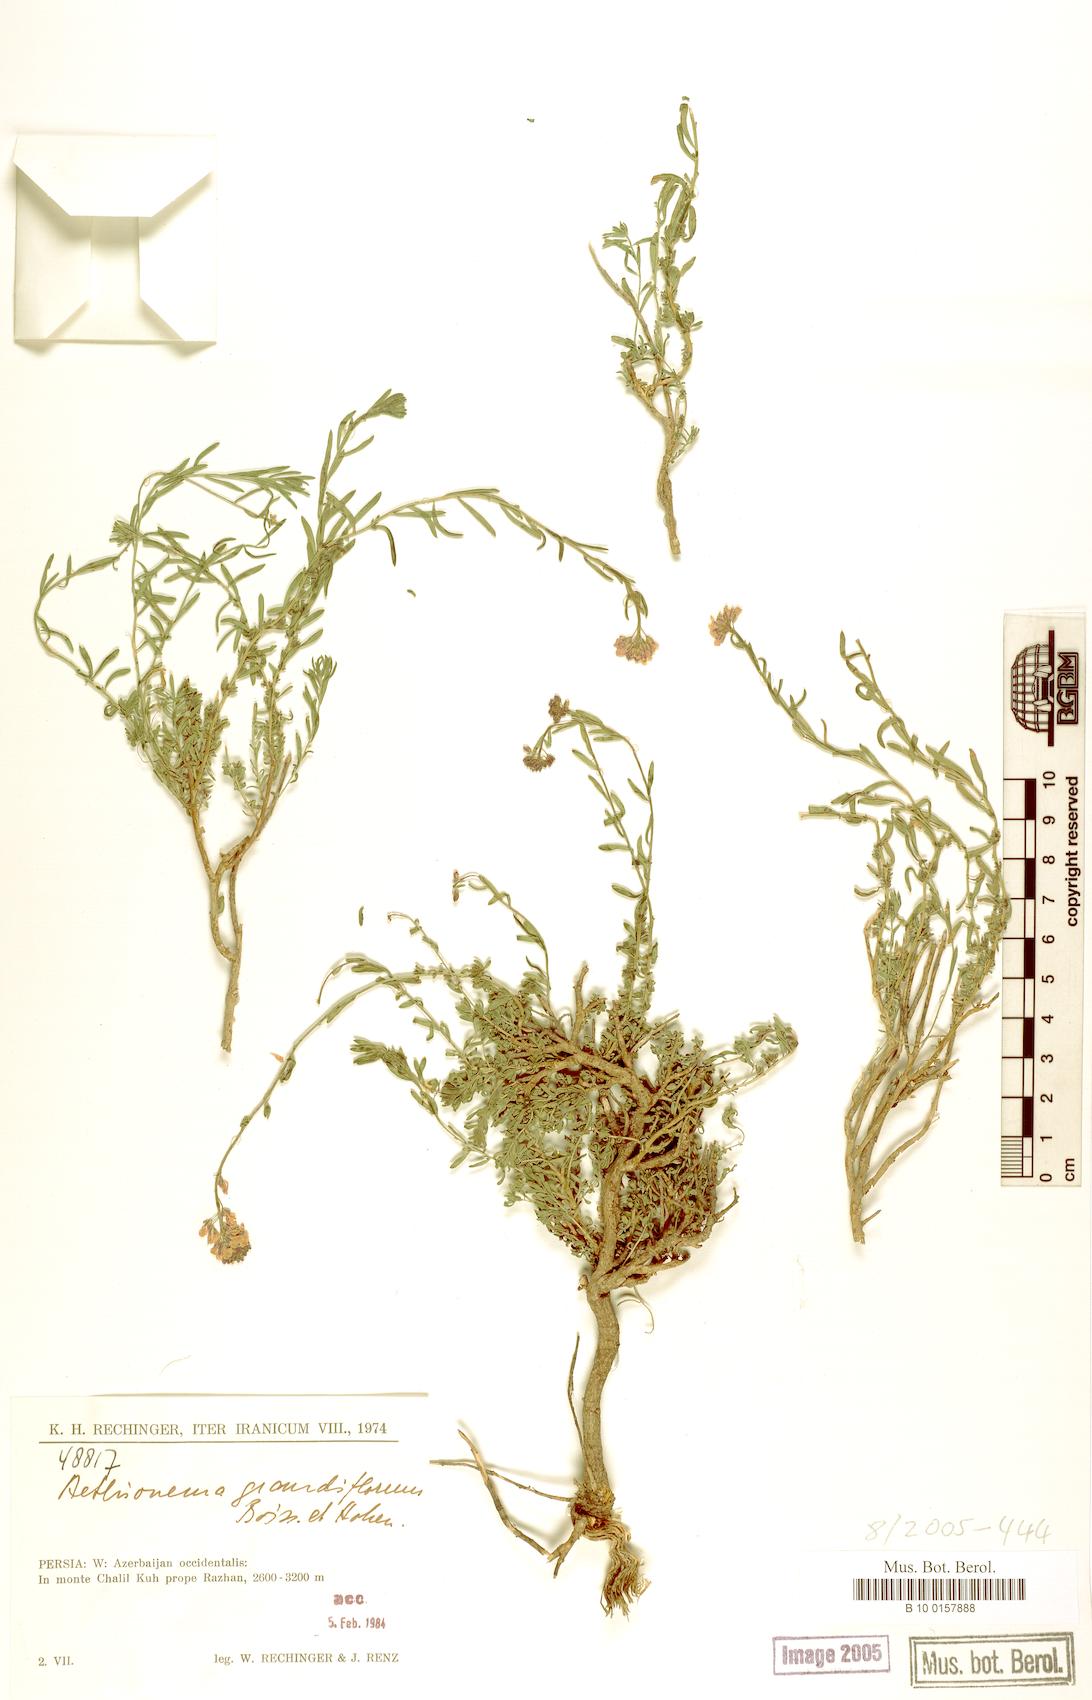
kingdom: Plantae
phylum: Tracheophyta
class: Magnoliopsida
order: Brassicales
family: Brassicaceae
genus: Aethionema
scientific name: Aethionema grandiflorum
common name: Persian stonecress
